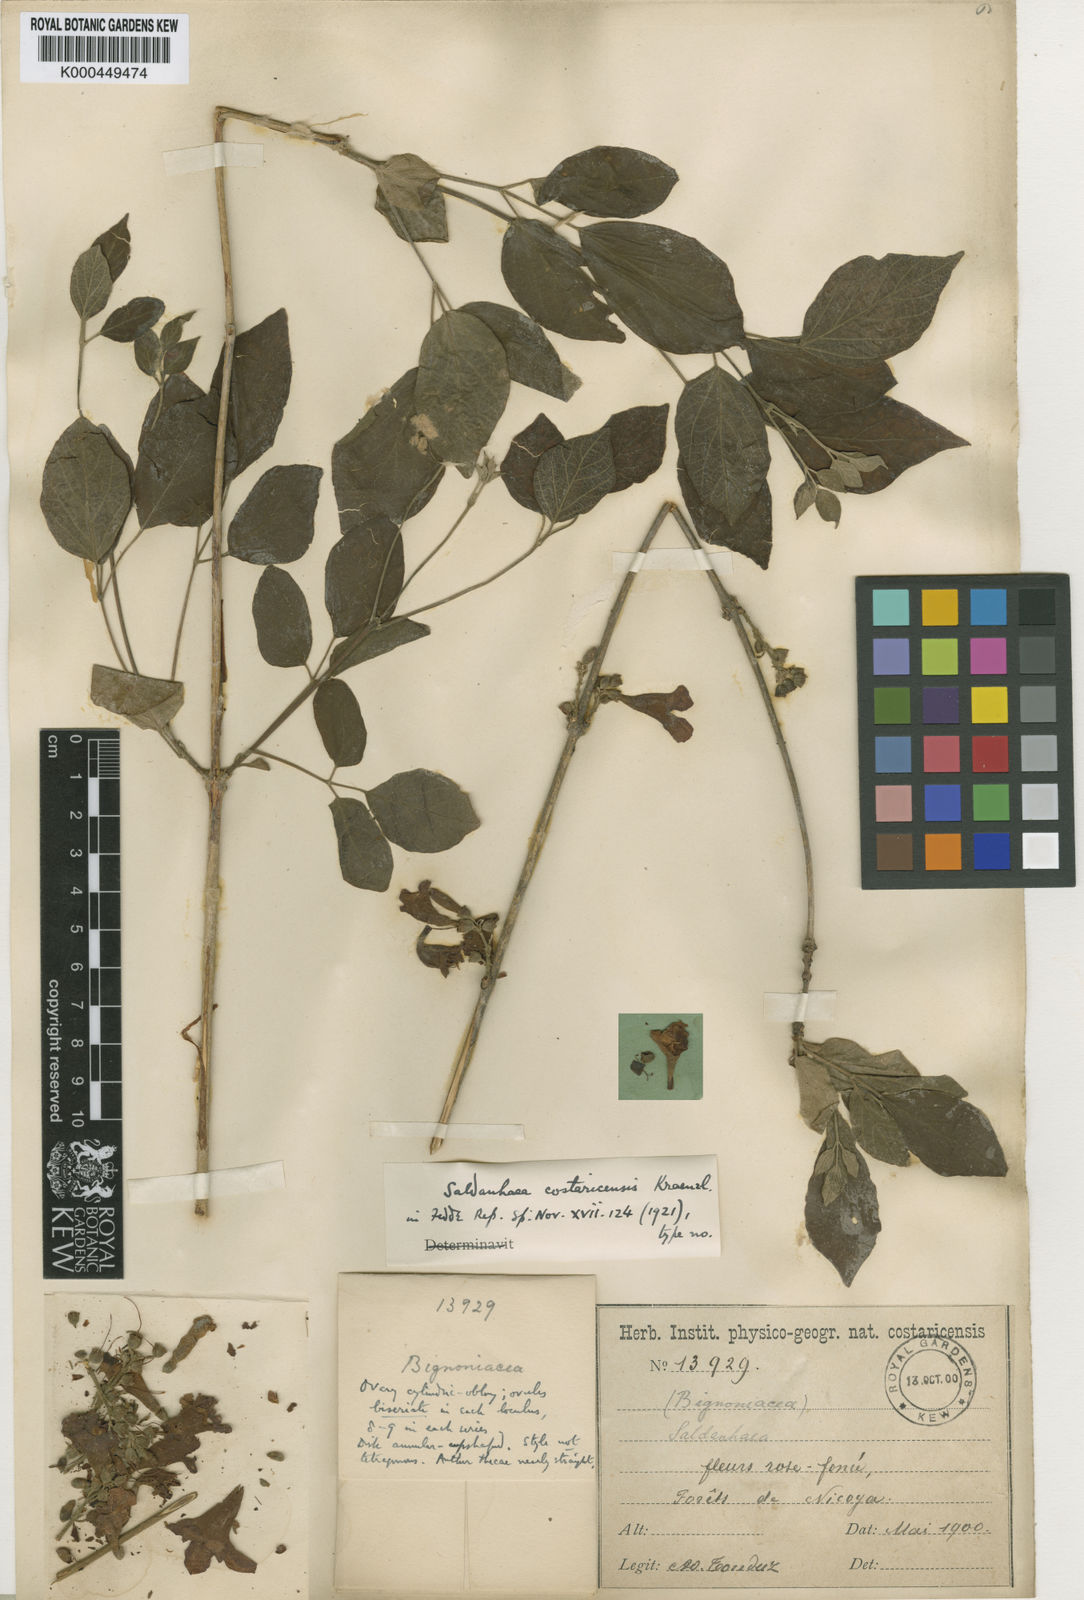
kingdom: Plantae
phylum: Tracheophyta
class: Magnoliopsida
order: Lamiales
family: Bignoniaceae
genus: Cuspidaria
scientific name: Cuspidaria
